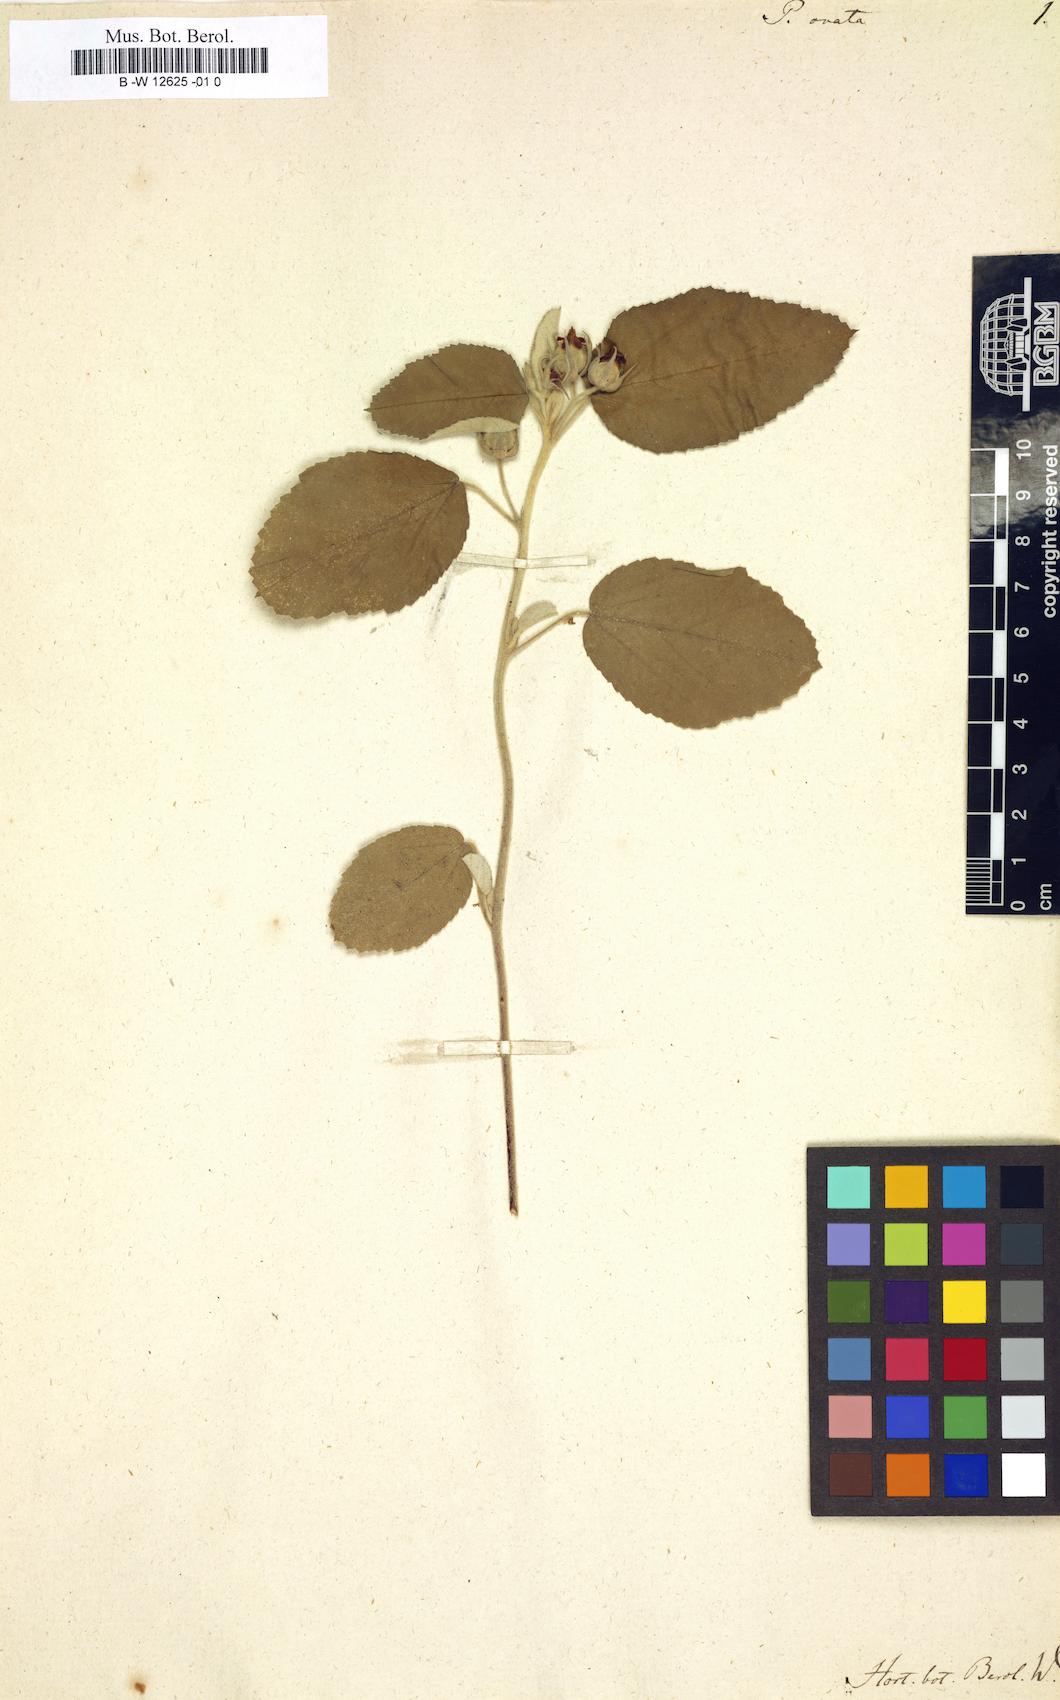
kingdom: Plantae
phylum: Tracheophyta
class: Magnoliopsida
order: Malvales
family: Malvaceae
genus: Melhania
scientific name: Melhania ovata
